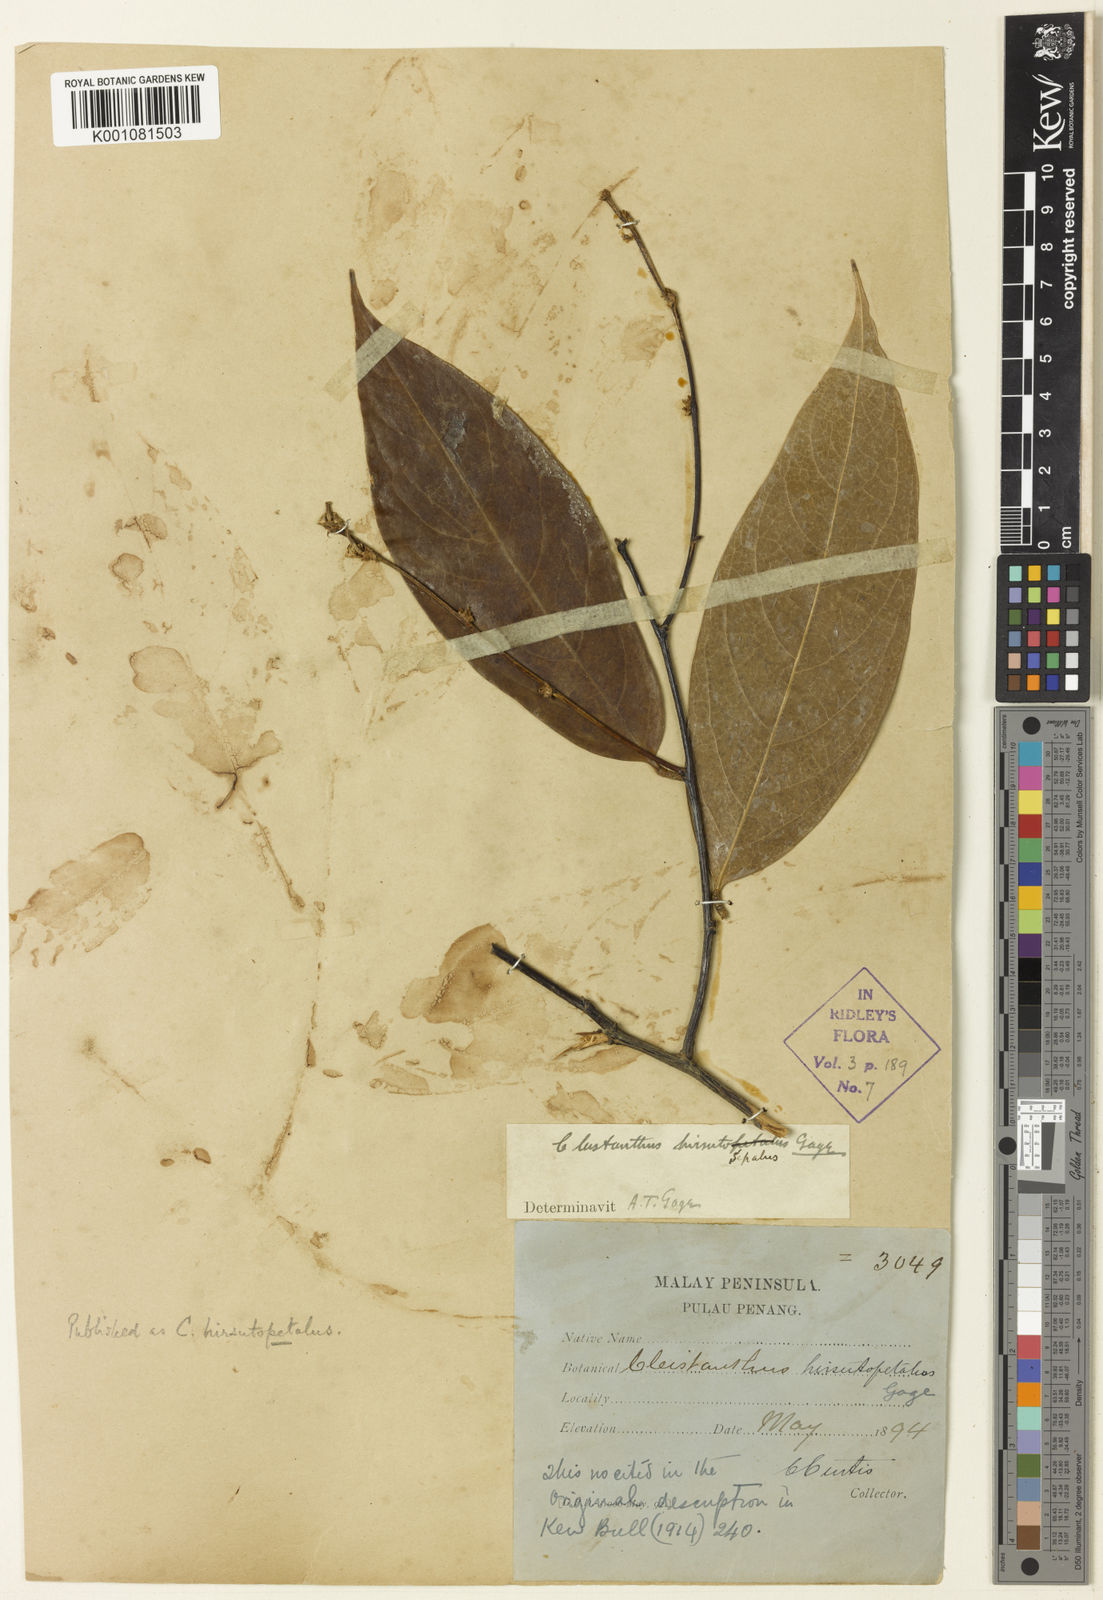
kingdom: Plantae
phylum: Tracheophyta
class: Magnoliopsida
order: Malpighiales
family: Phyllanthaceae
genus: Cleistanthus
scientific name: Cleistanthus hirsutopetalus
